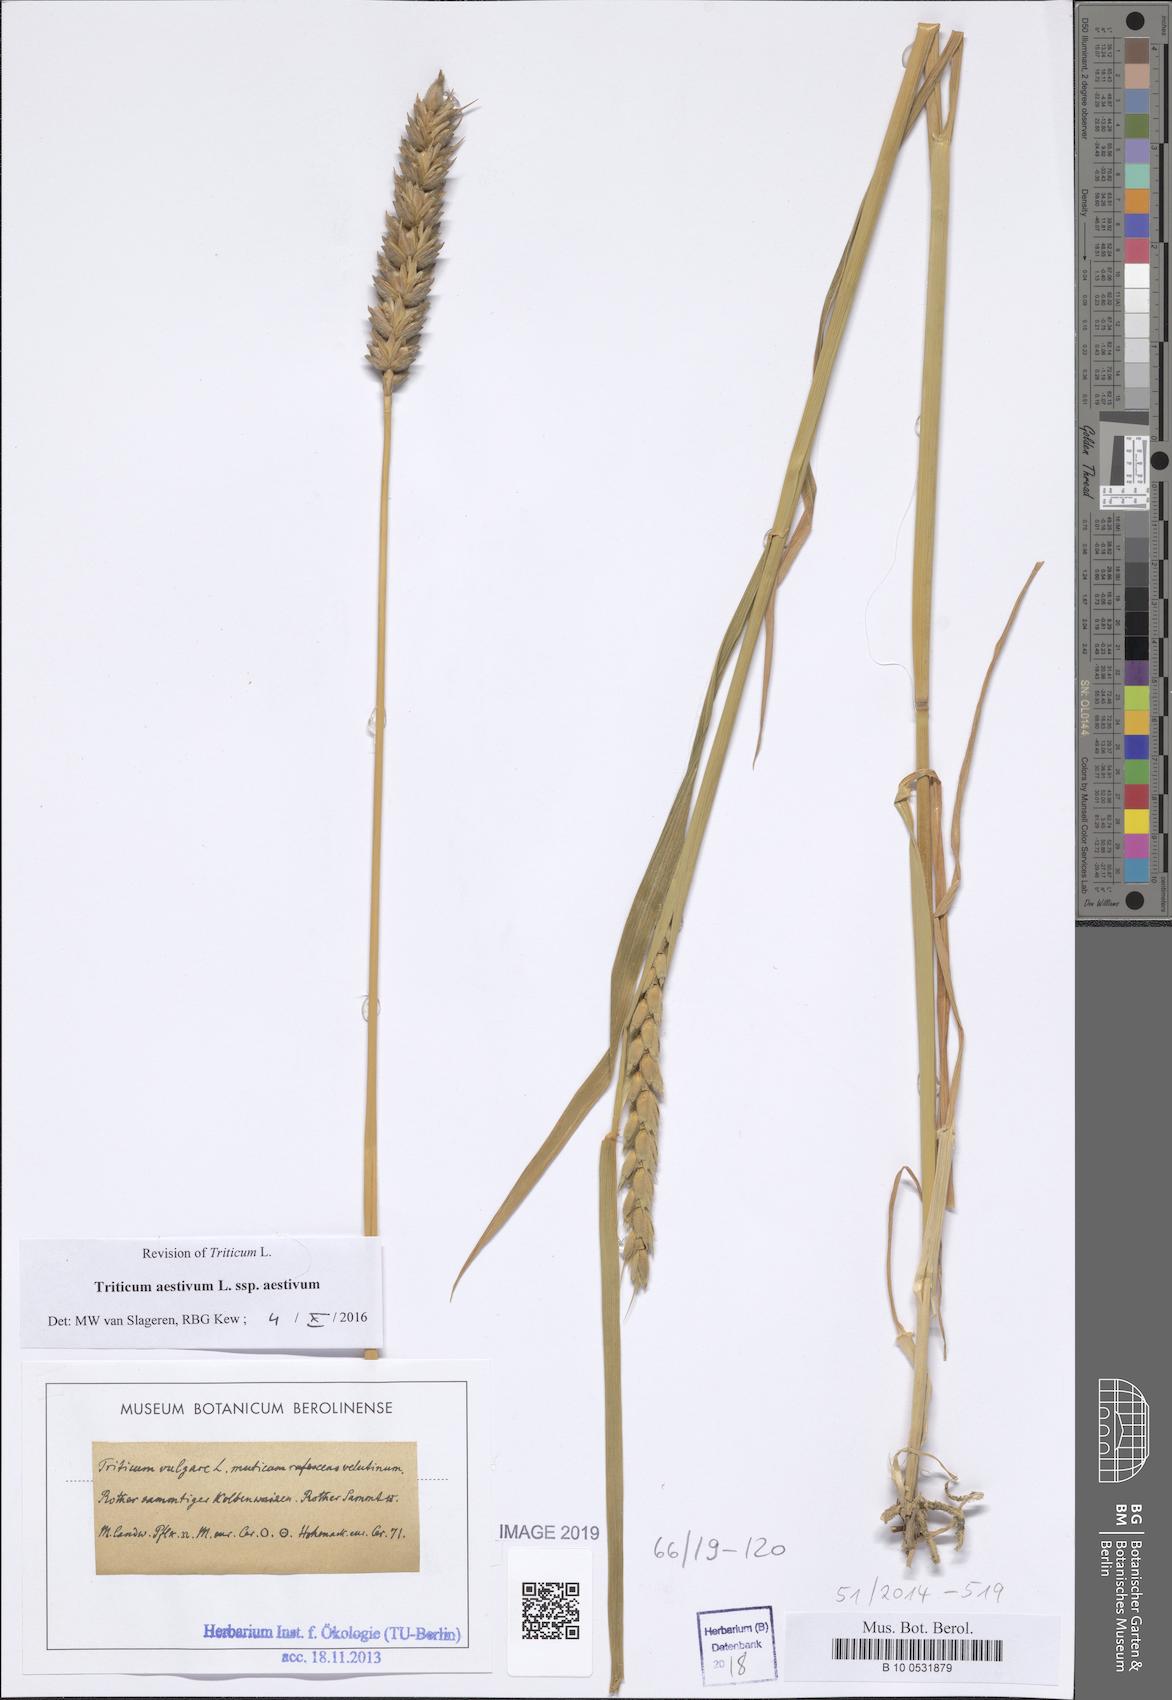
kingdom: Plantae
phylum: Tracheophyta
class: Liliopsida
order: Poales
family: Poaceae
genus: Triticum
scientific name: Triticum aestivum
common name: Common wheat
